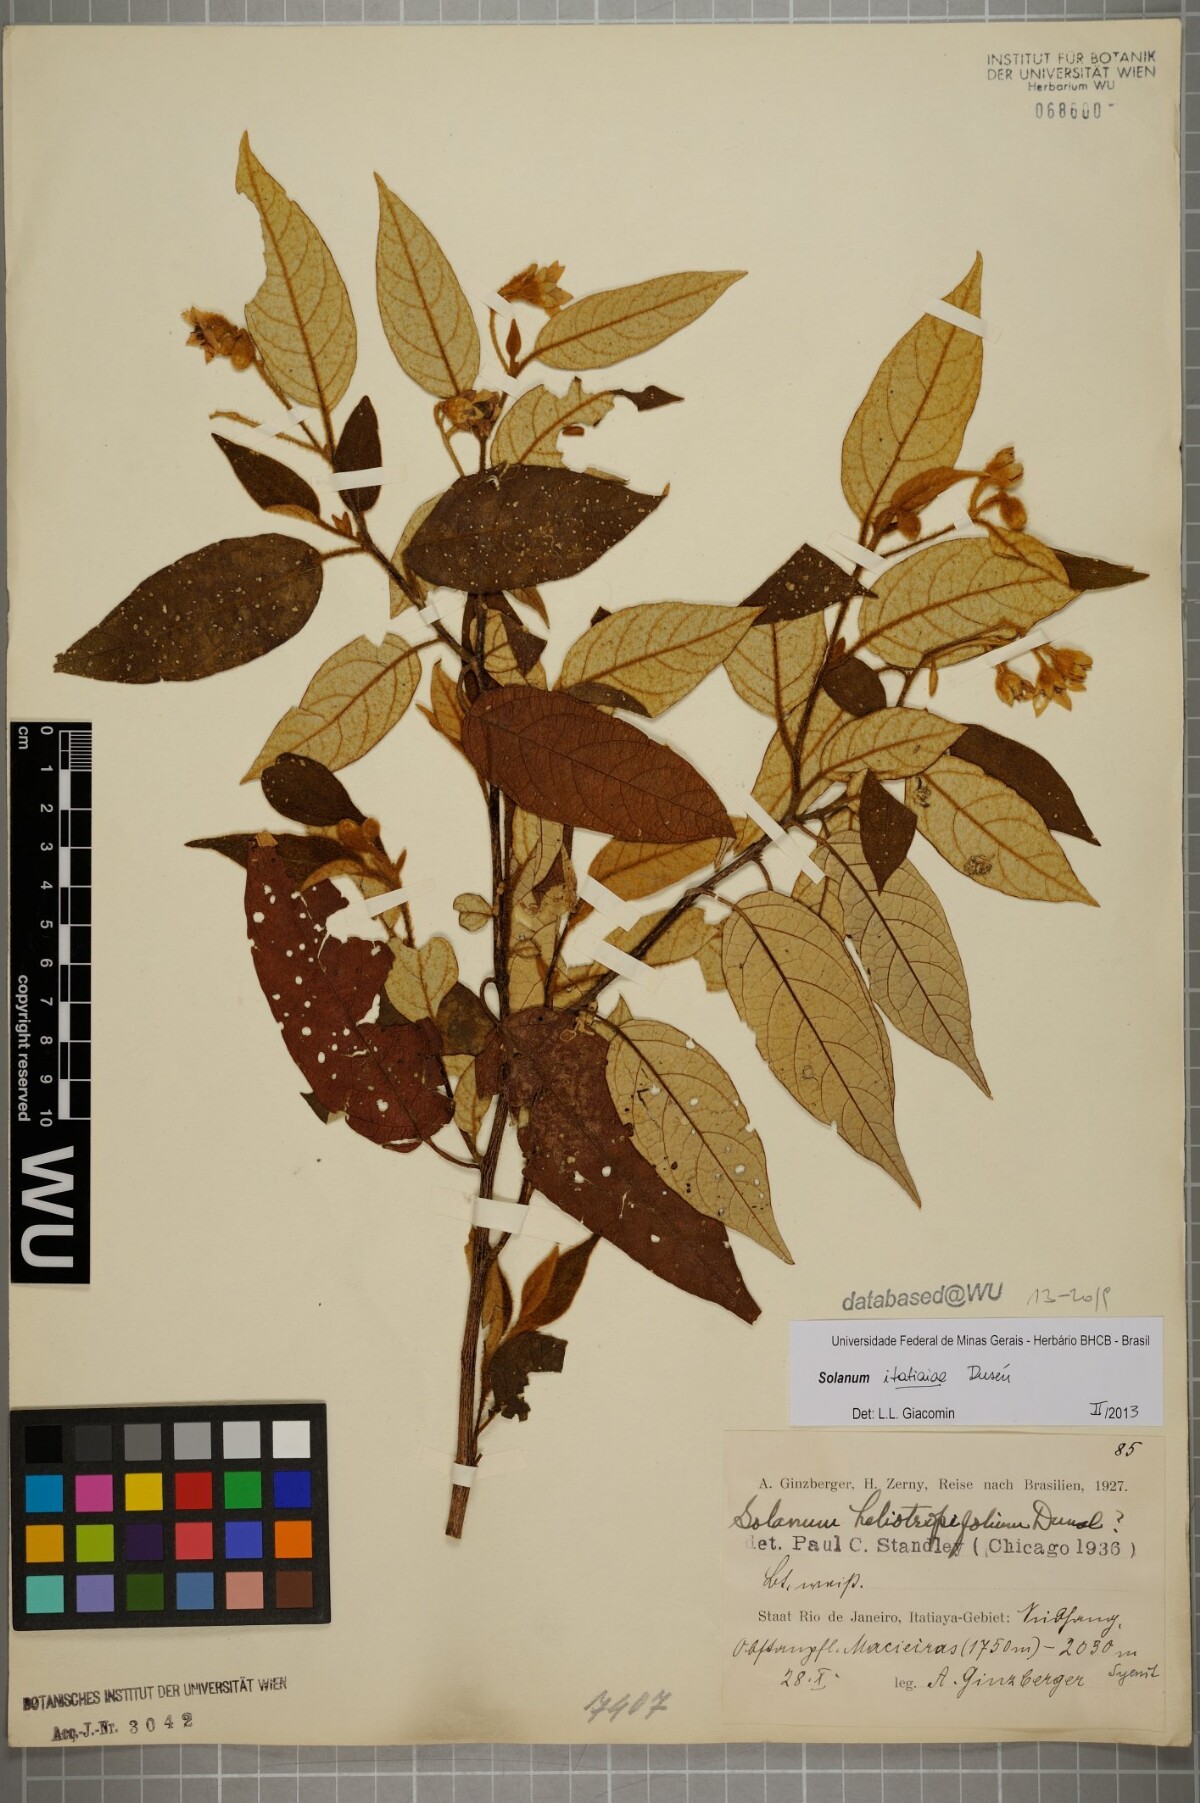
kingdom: Plantae
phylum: Tracheophyta
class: Magnoliopsida
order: Solanales
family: Solanaceae
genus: Solanum
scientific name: Solanum itatiaiae
